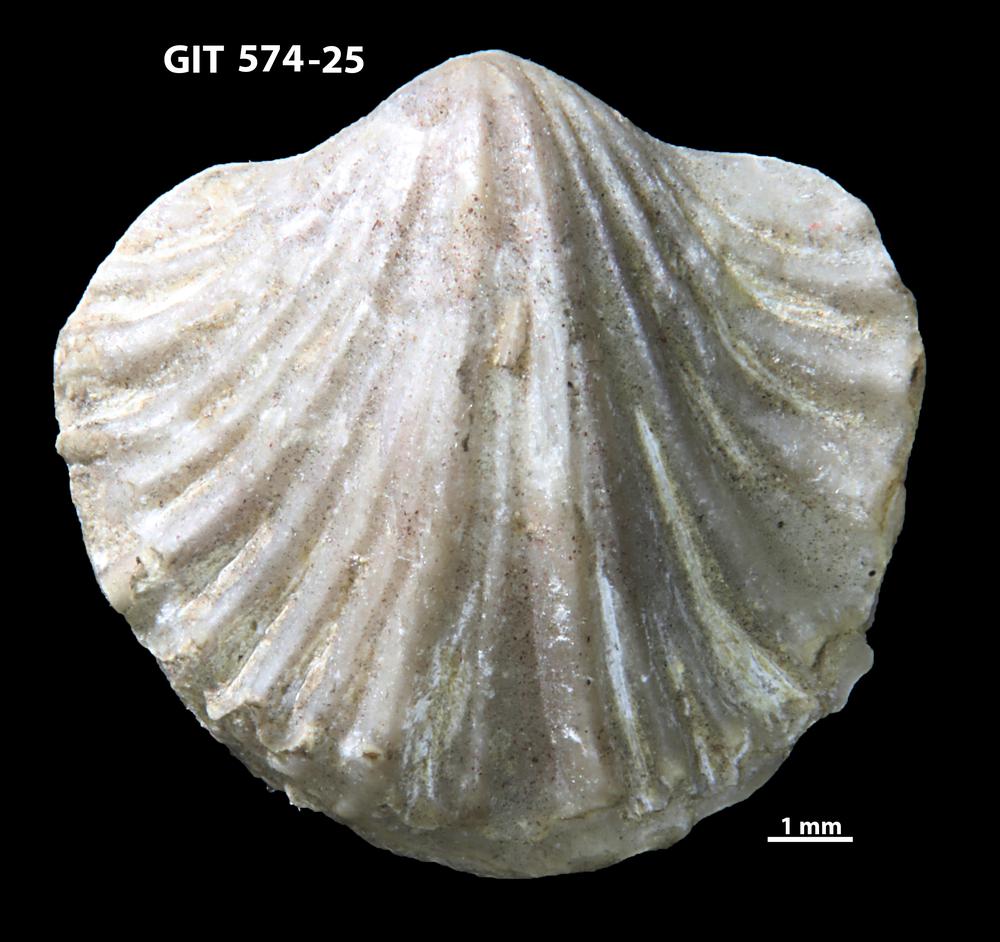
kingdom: Animalia
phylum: Brachiopoda
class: Rhynchonellata
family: Atrypinidae
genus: Eospirigerina
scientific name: Eospirigerina sulevi
